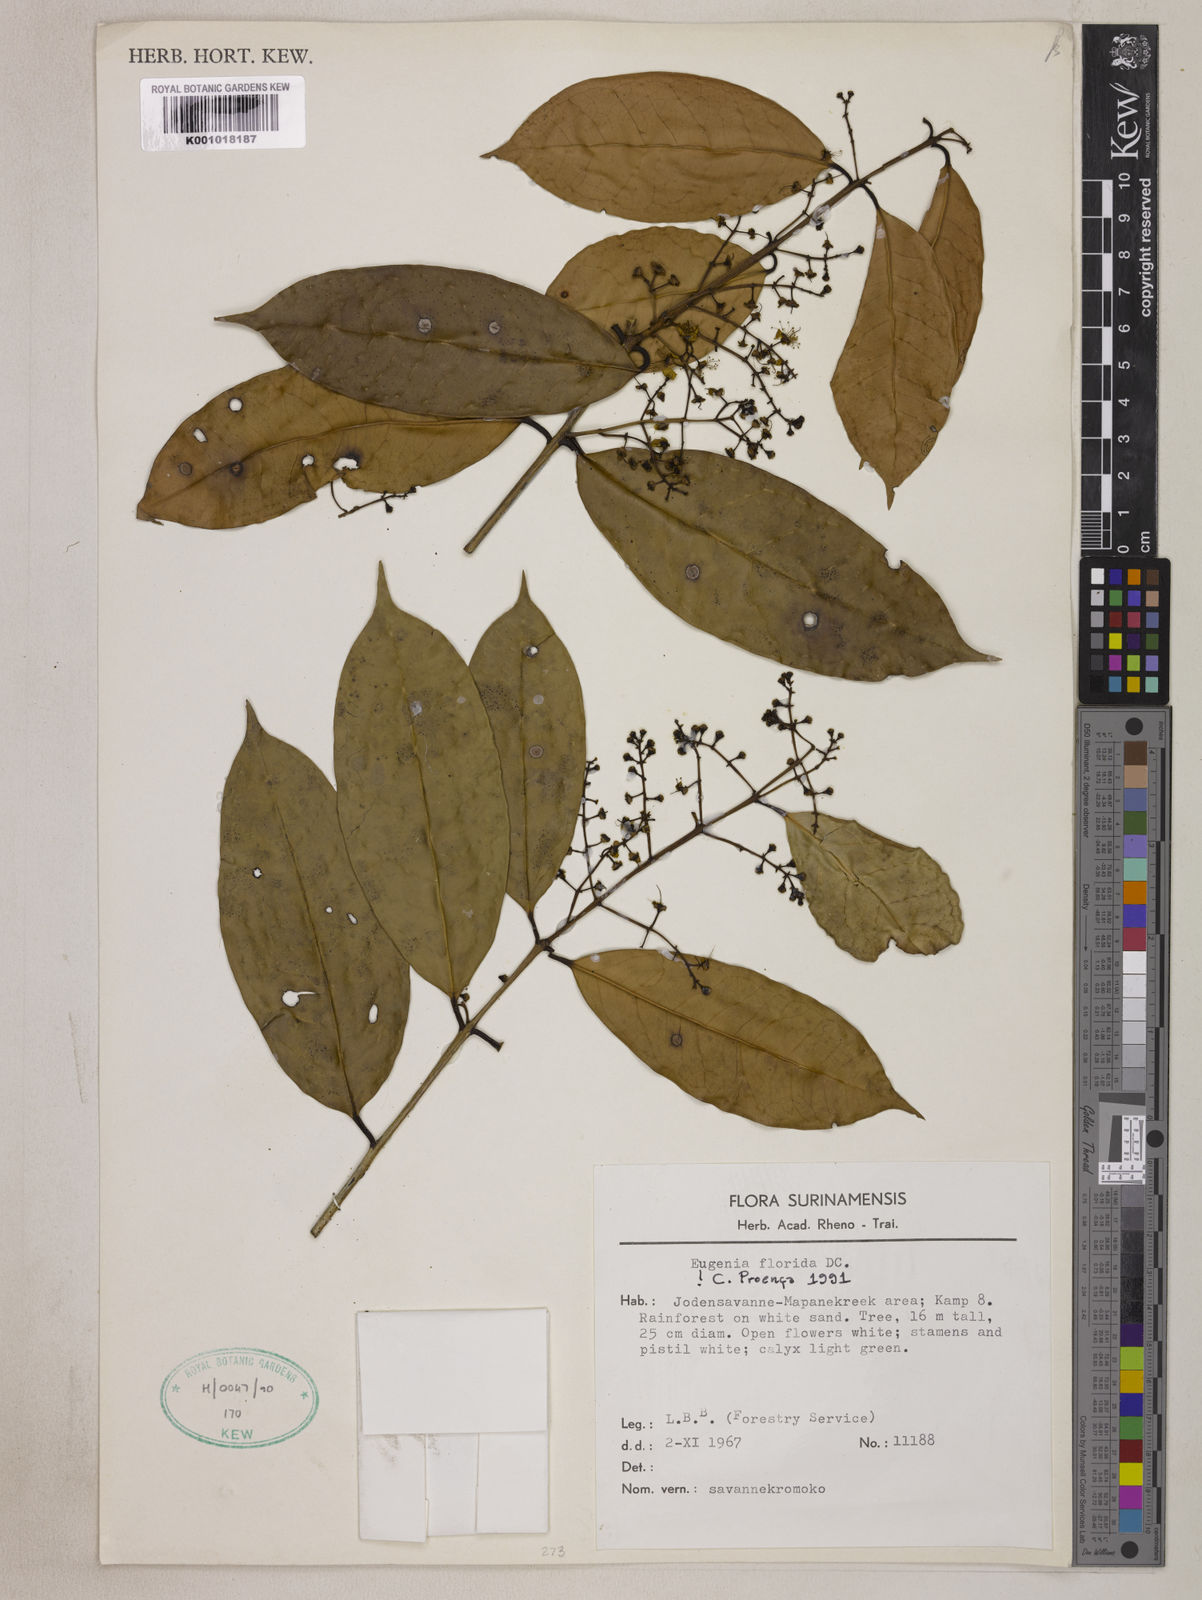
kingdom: Plantae
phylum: Tracheophyta
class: Magnoliopsida
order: Myrtales
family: Myrtaceae
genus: Eugenia
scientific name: Eugenia florida
